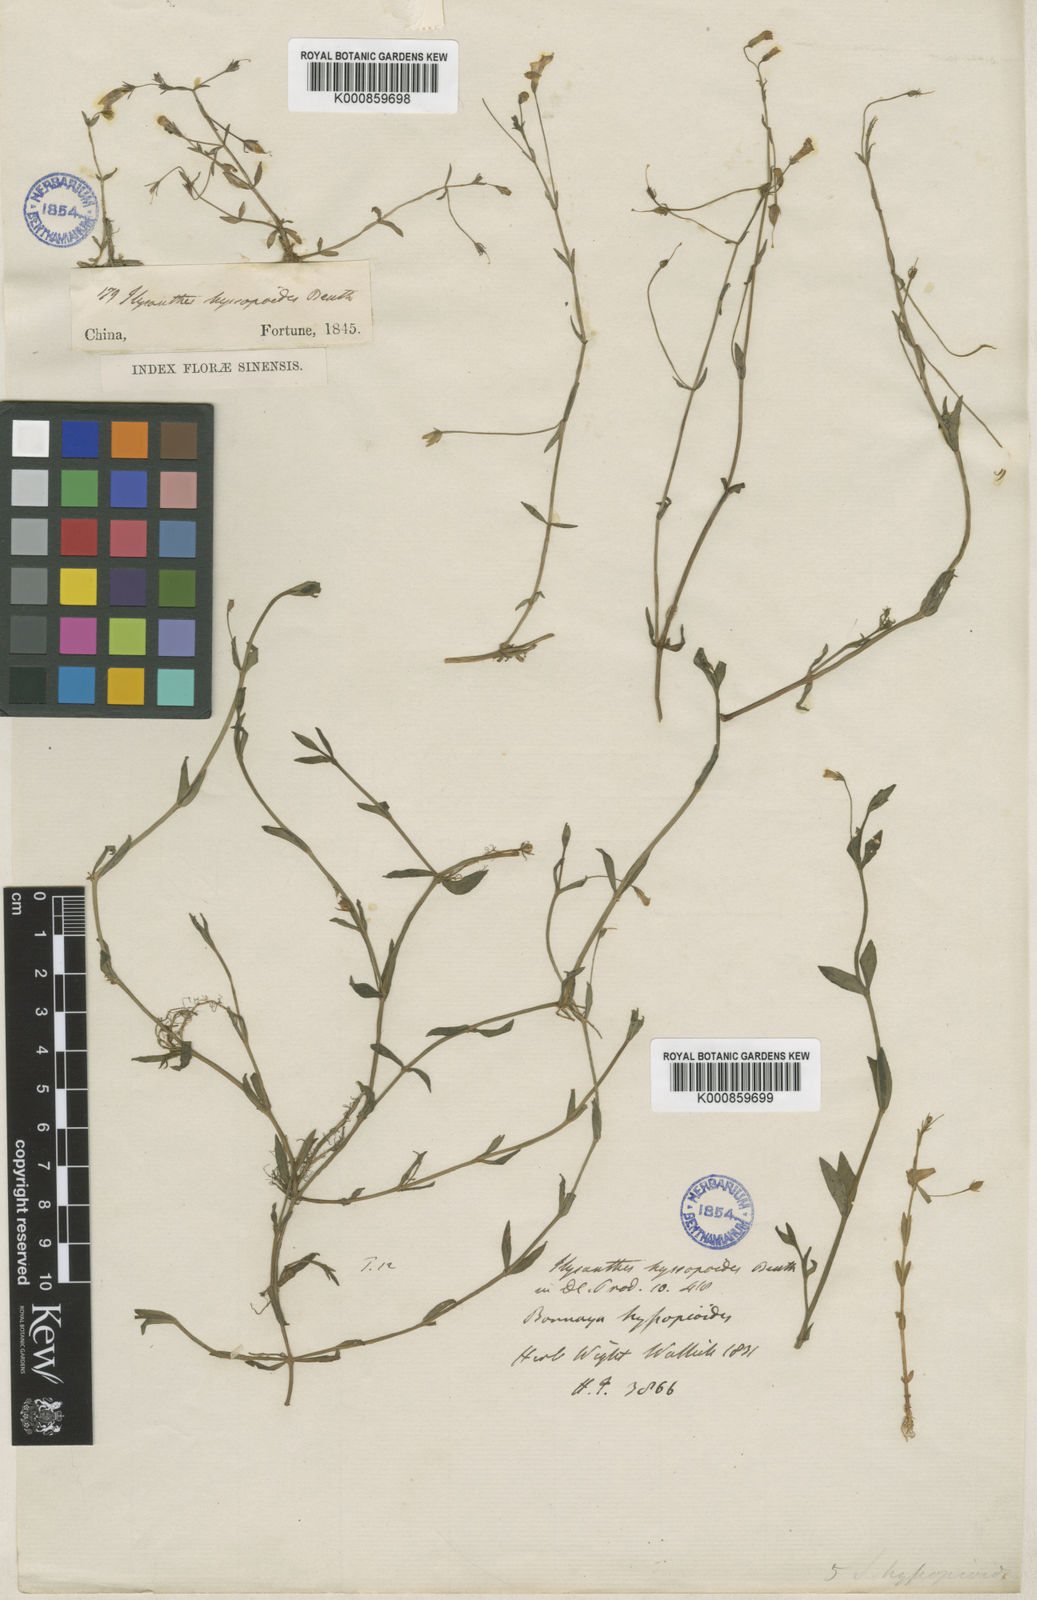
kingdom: Plantae
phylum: Tracheophyta
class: Magnoliopsida
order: Lamiales
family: Linderniaceae
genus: Lindernia
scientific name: Lindernia hyssopioides
